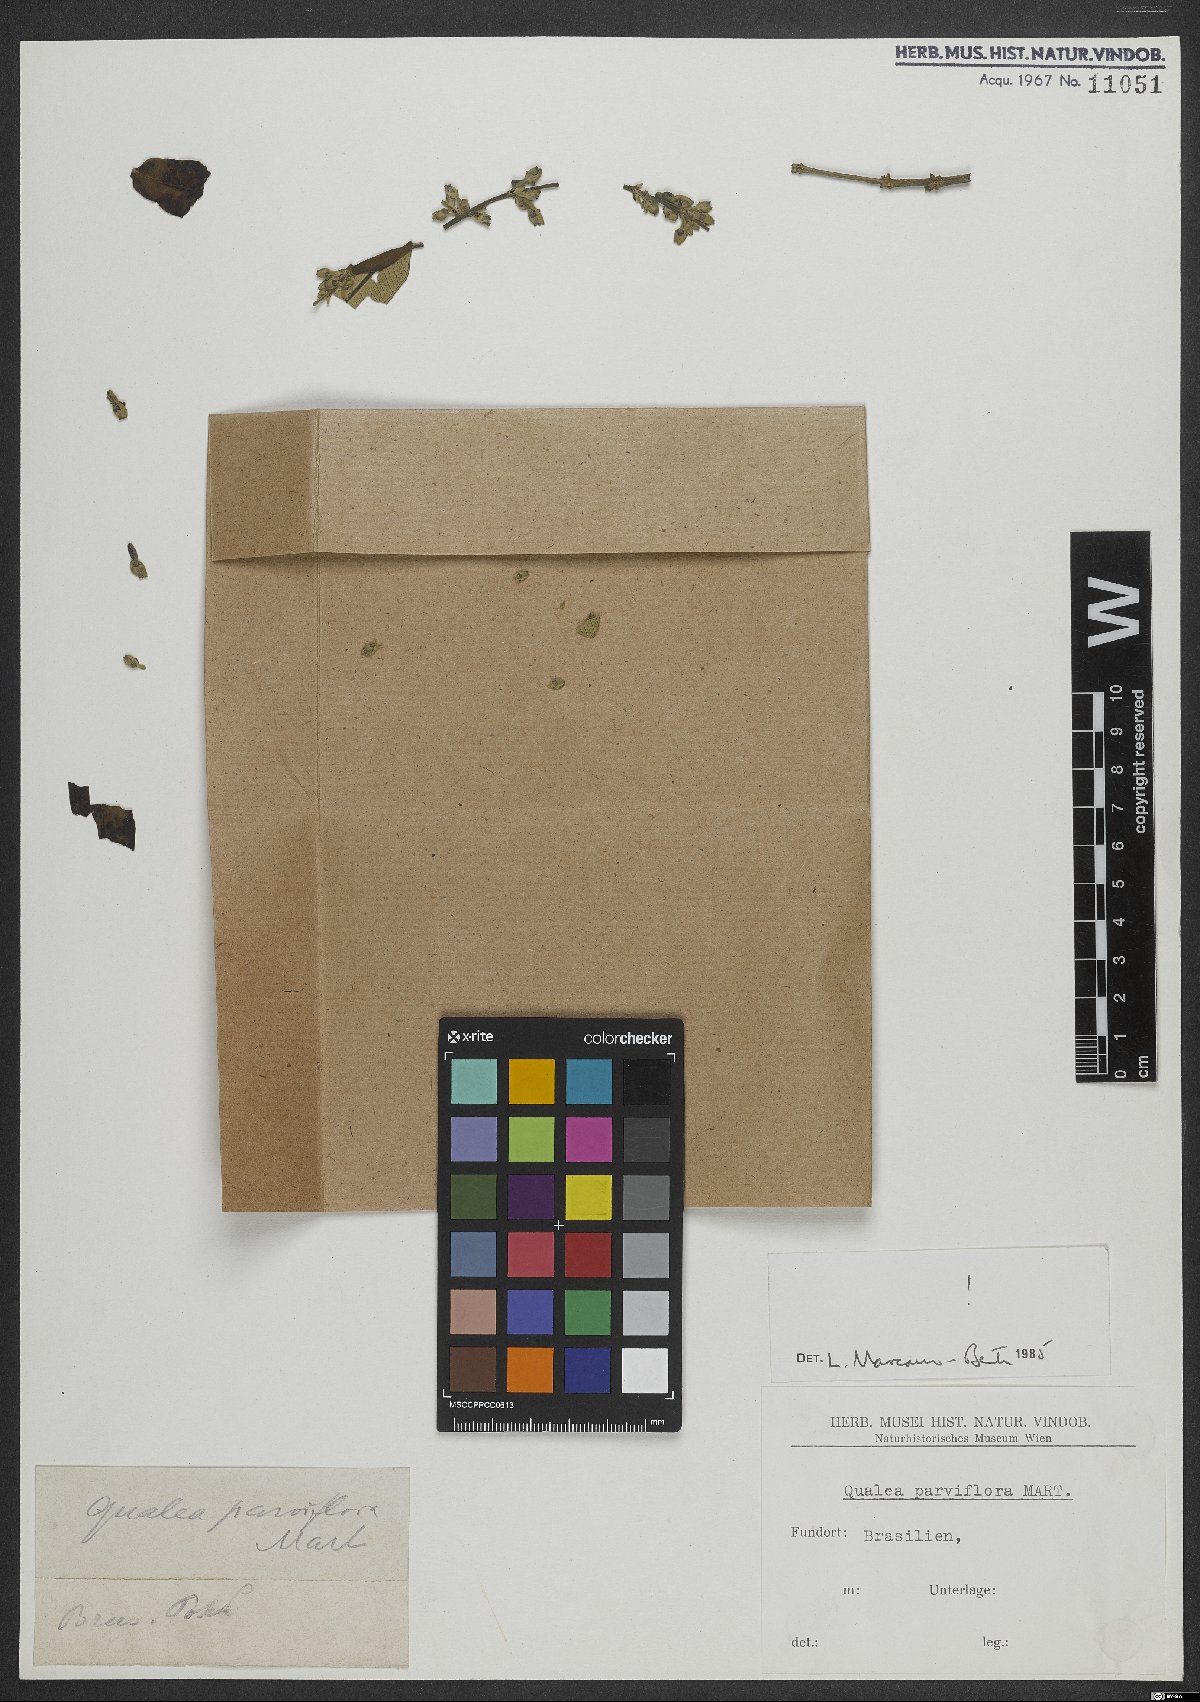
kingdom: Plantae
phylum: Tracheophyta
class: Magnoliopsida
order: Myrtales
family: Vochysiaceae
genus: Qualea
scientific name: Qualea parviflora
